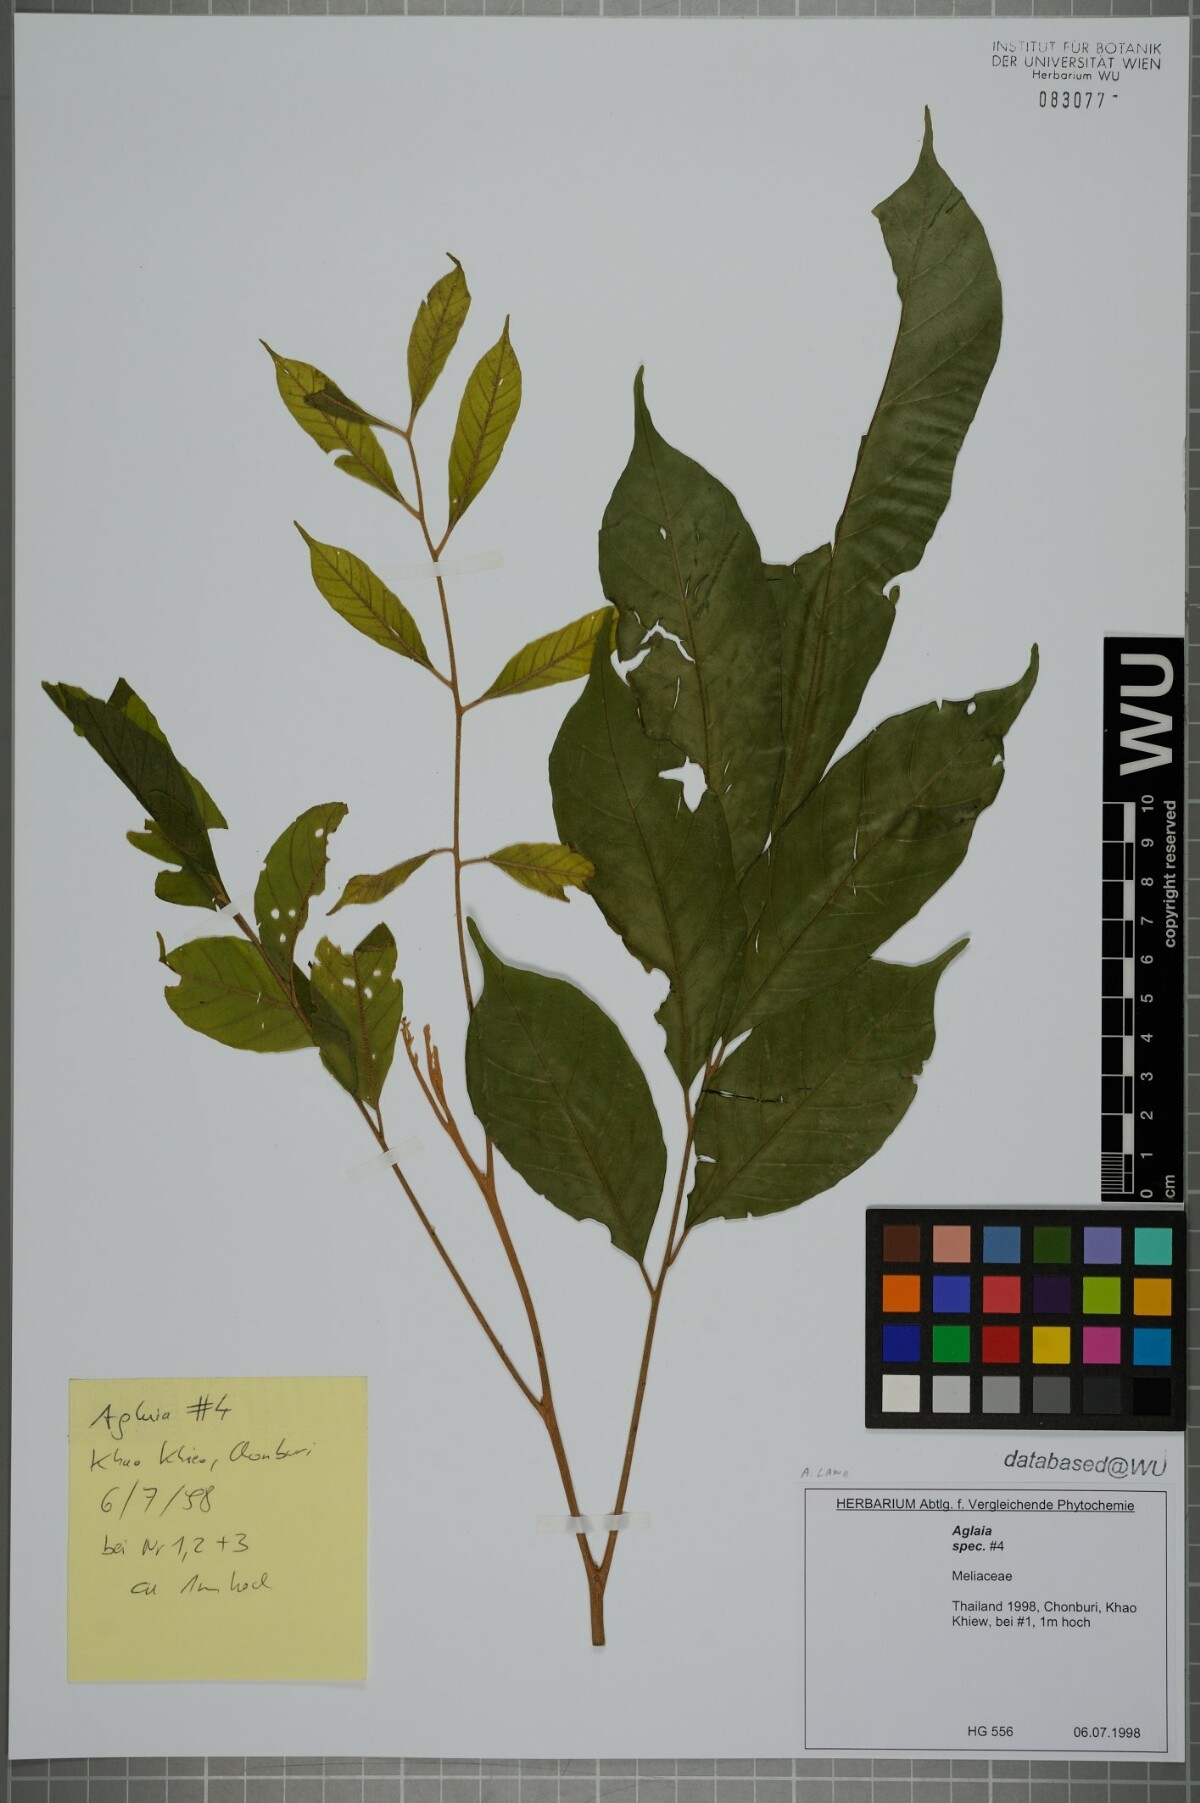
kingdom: Plantae
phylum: Tracheophyta
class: Magnoliopsida
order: Sapindales
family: Meliaceae
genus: Aglaia
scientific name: Aglaia lawii
